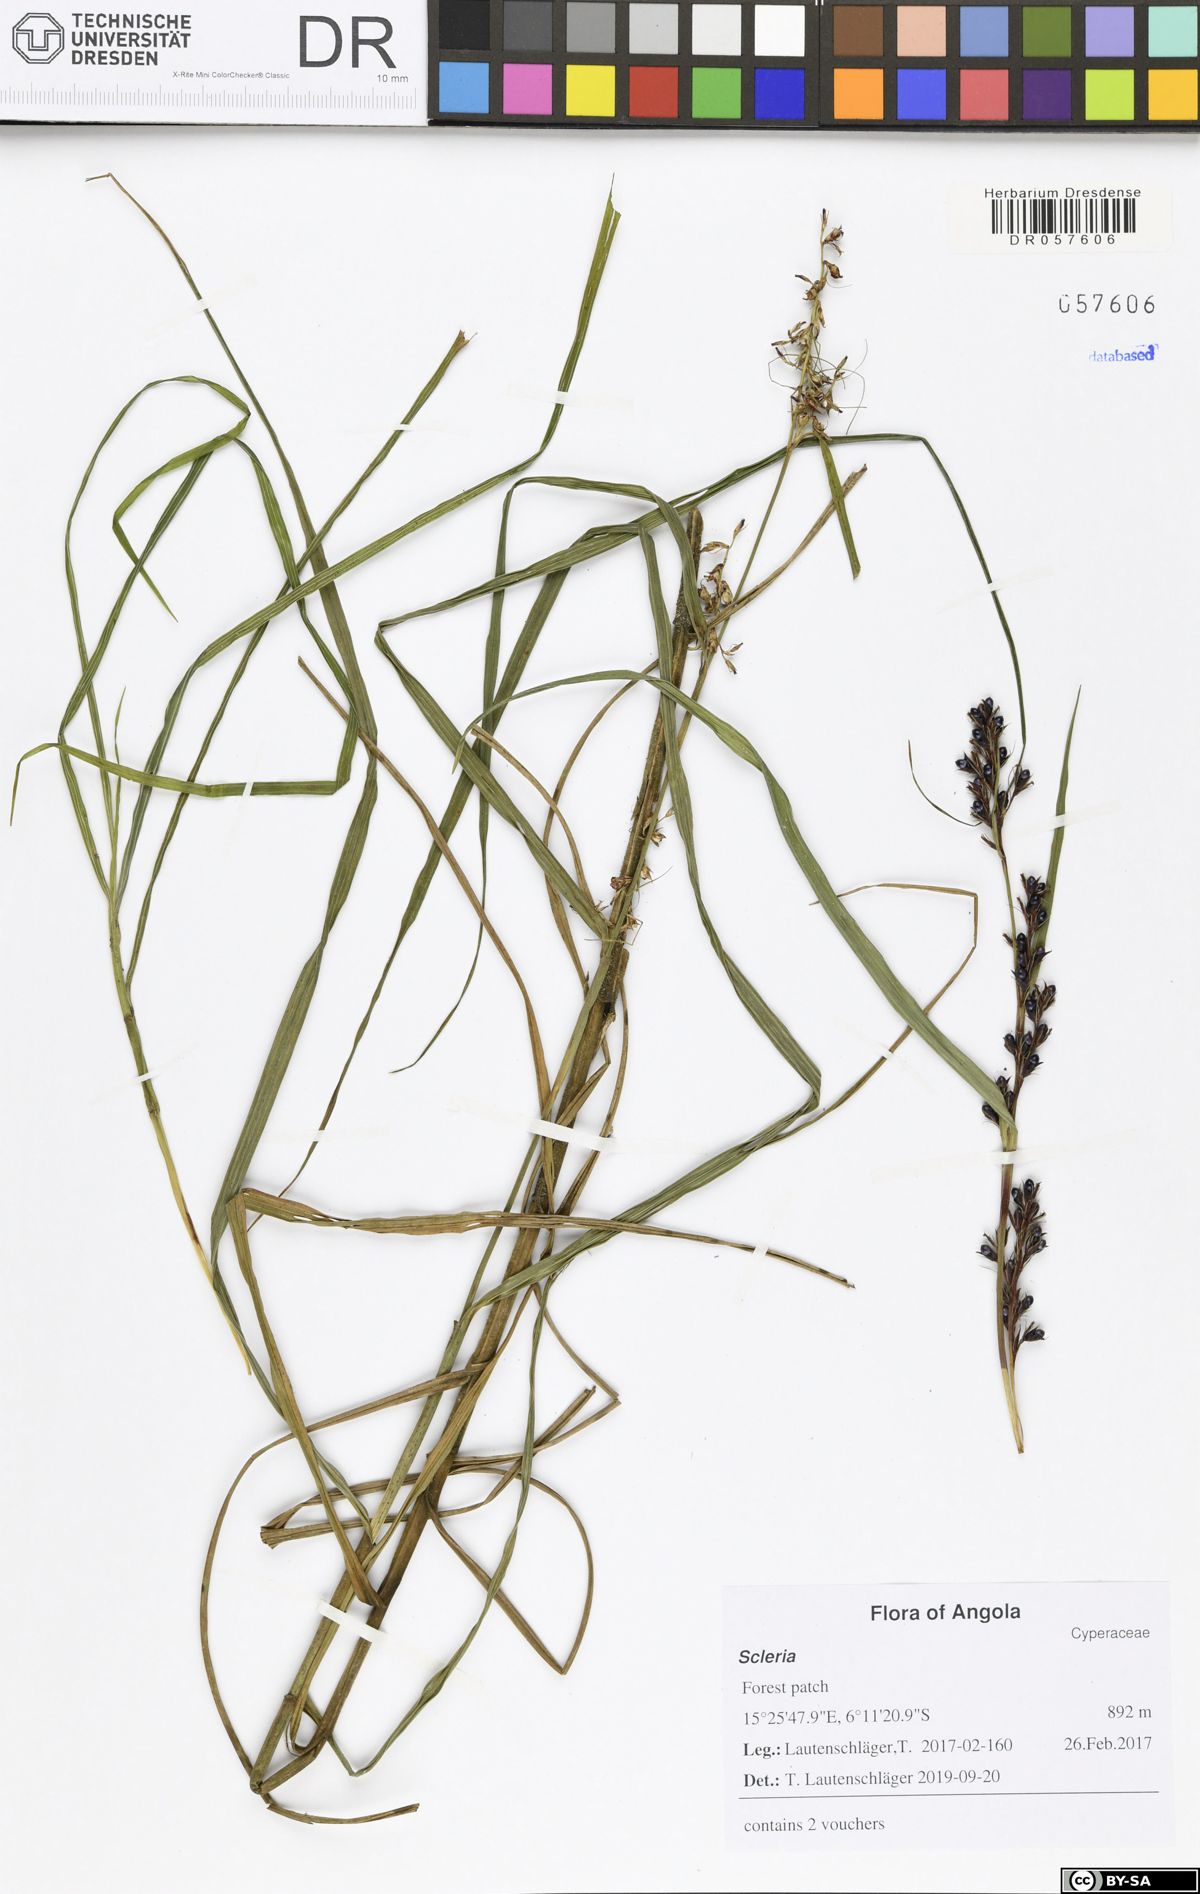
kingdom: Plantae
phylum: Tracheophyta
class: Liliopsida
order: Poales
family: Cyperaceae
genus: Scleria
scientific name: Scleria iostephana
